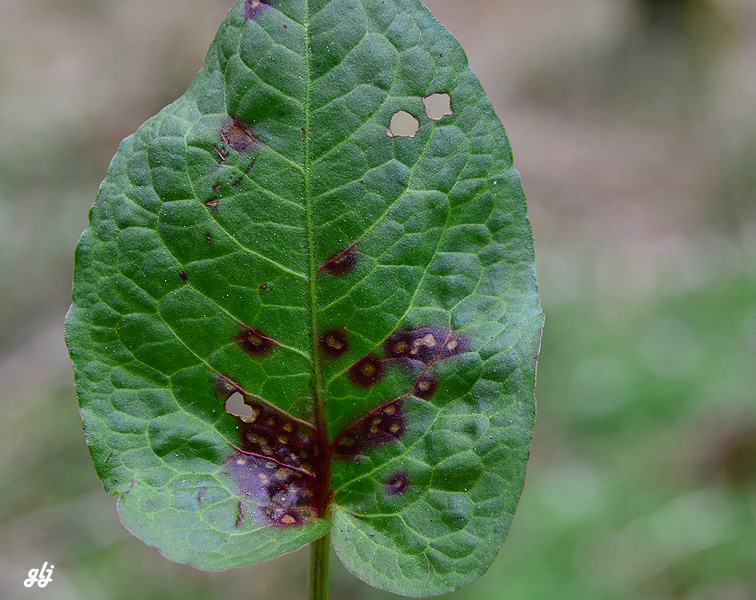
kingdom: Fungi
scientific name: Fungi
